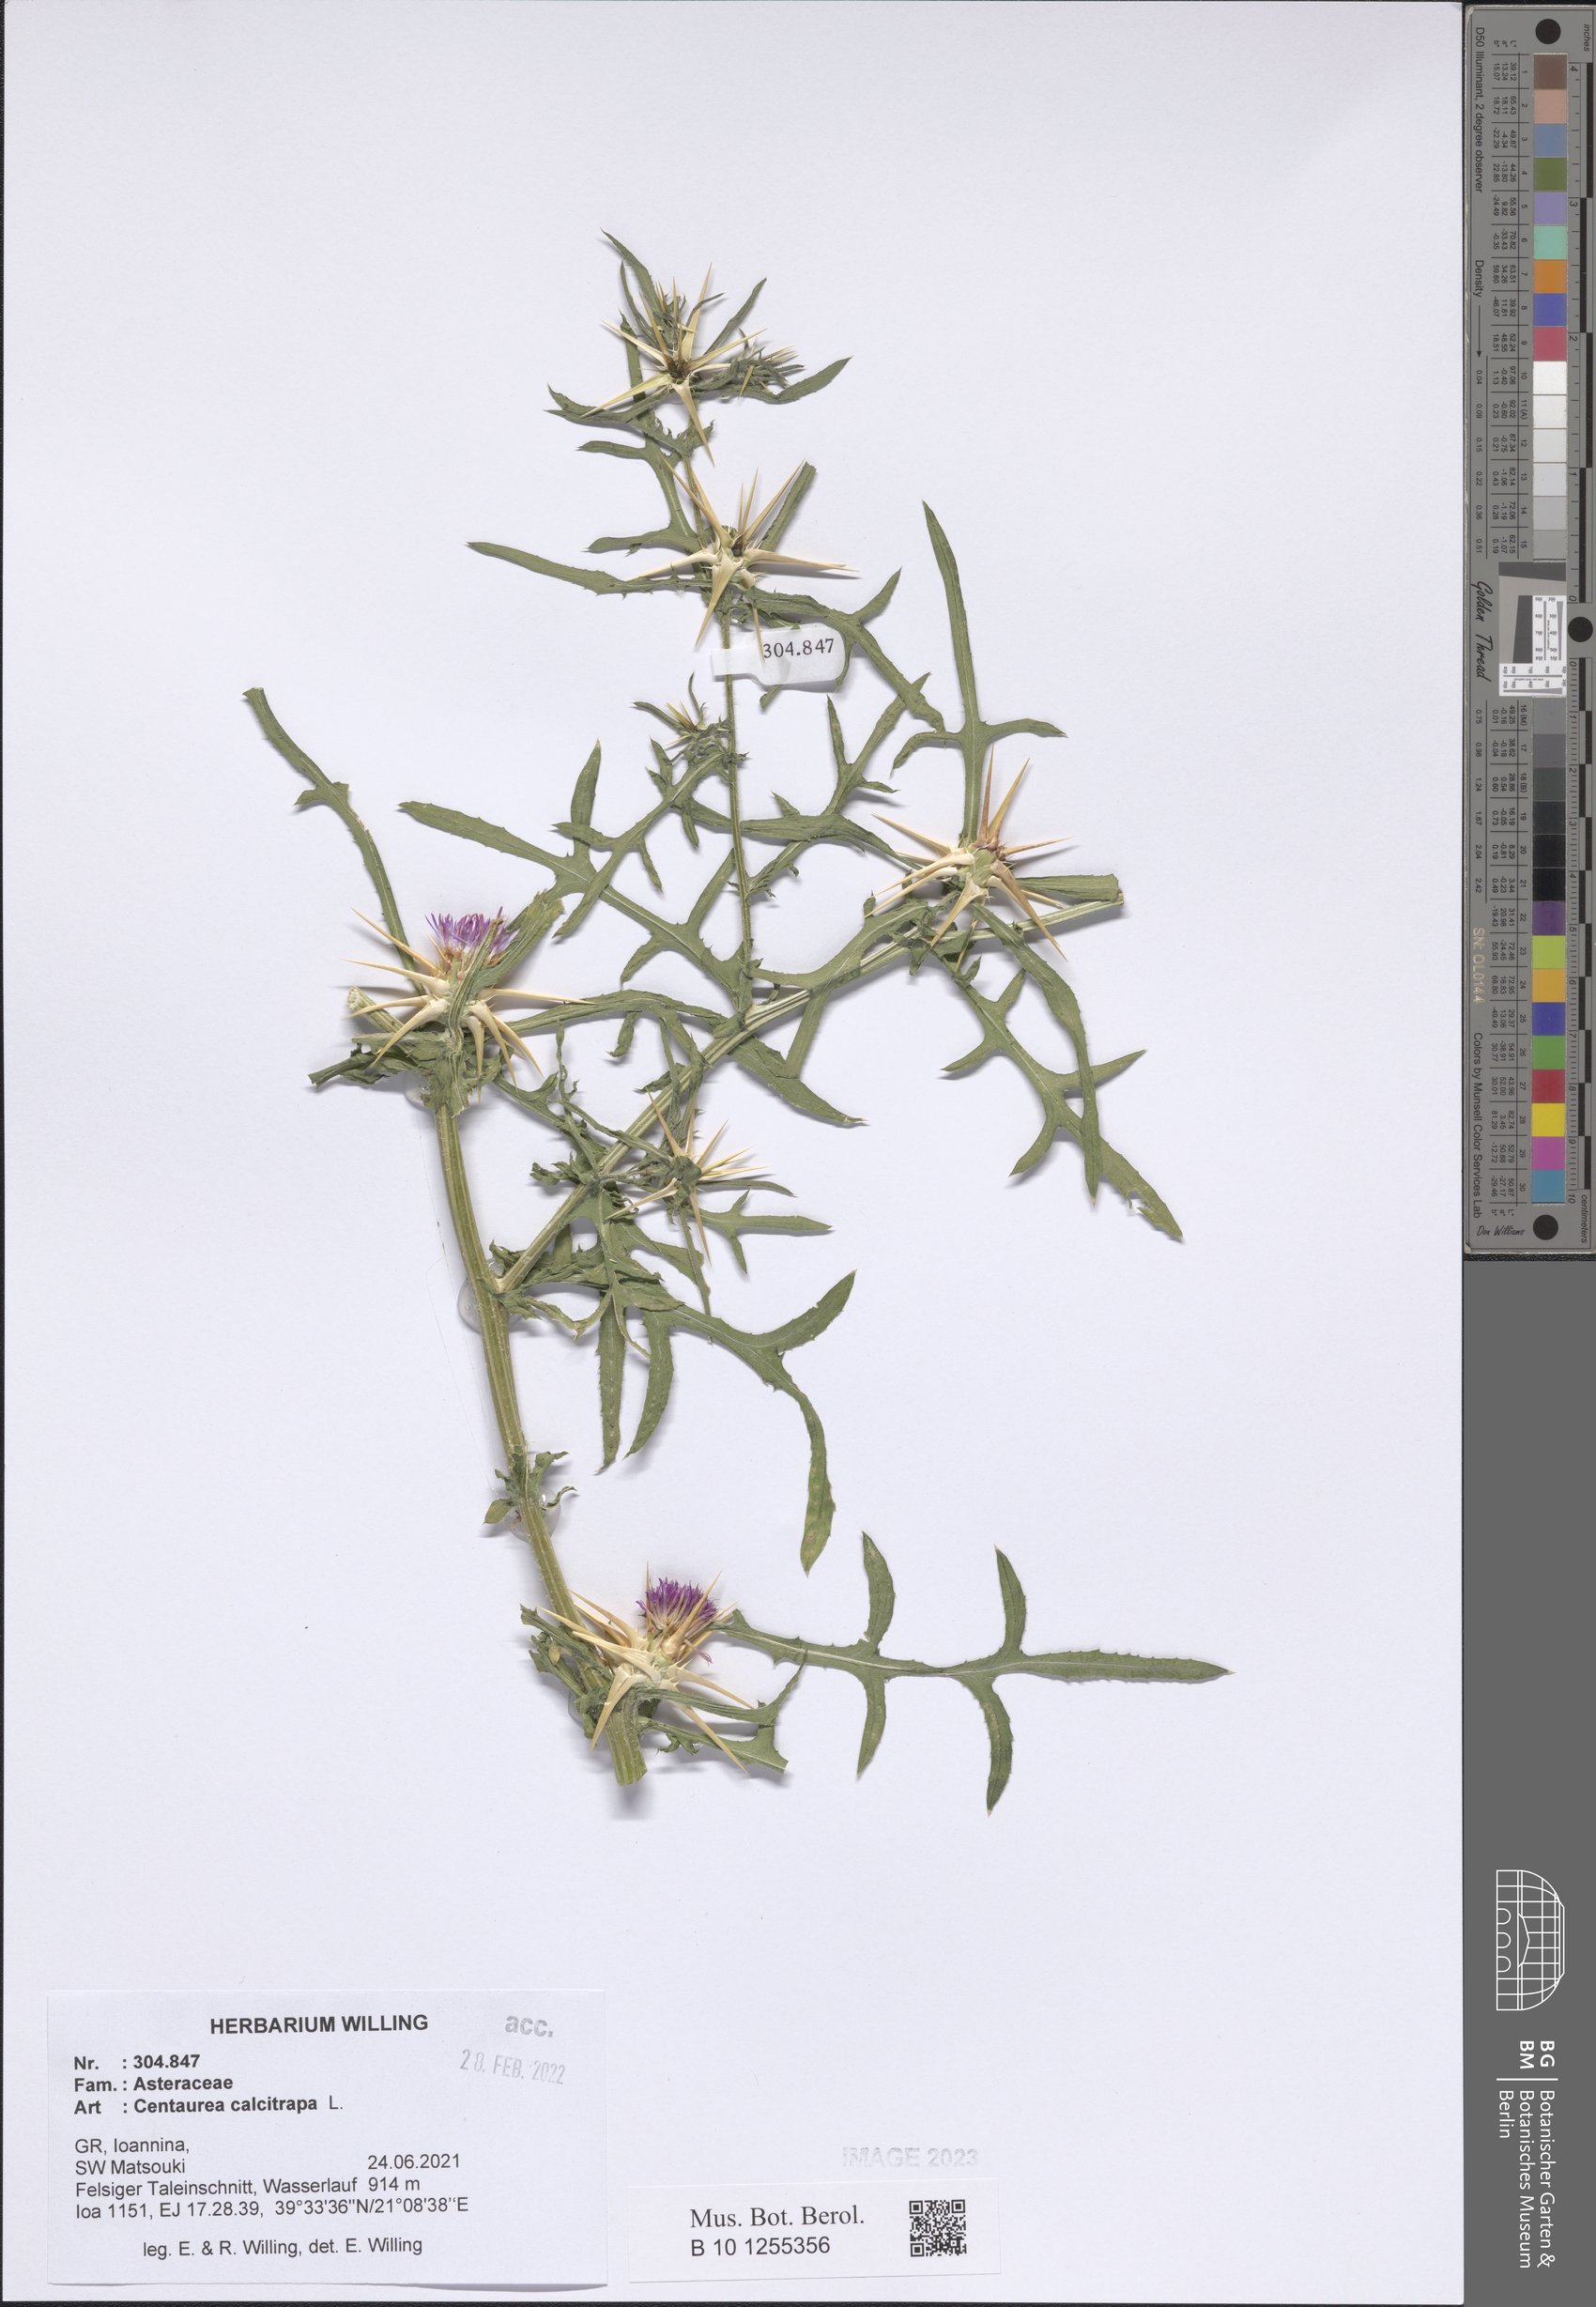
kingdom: Plantae
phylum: Tracheophyta
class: Magnoliopsida
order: Asterales
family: Asteraceae
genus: Centaurea
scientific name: Centaurea calcitrapa
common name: Red star-thistle
